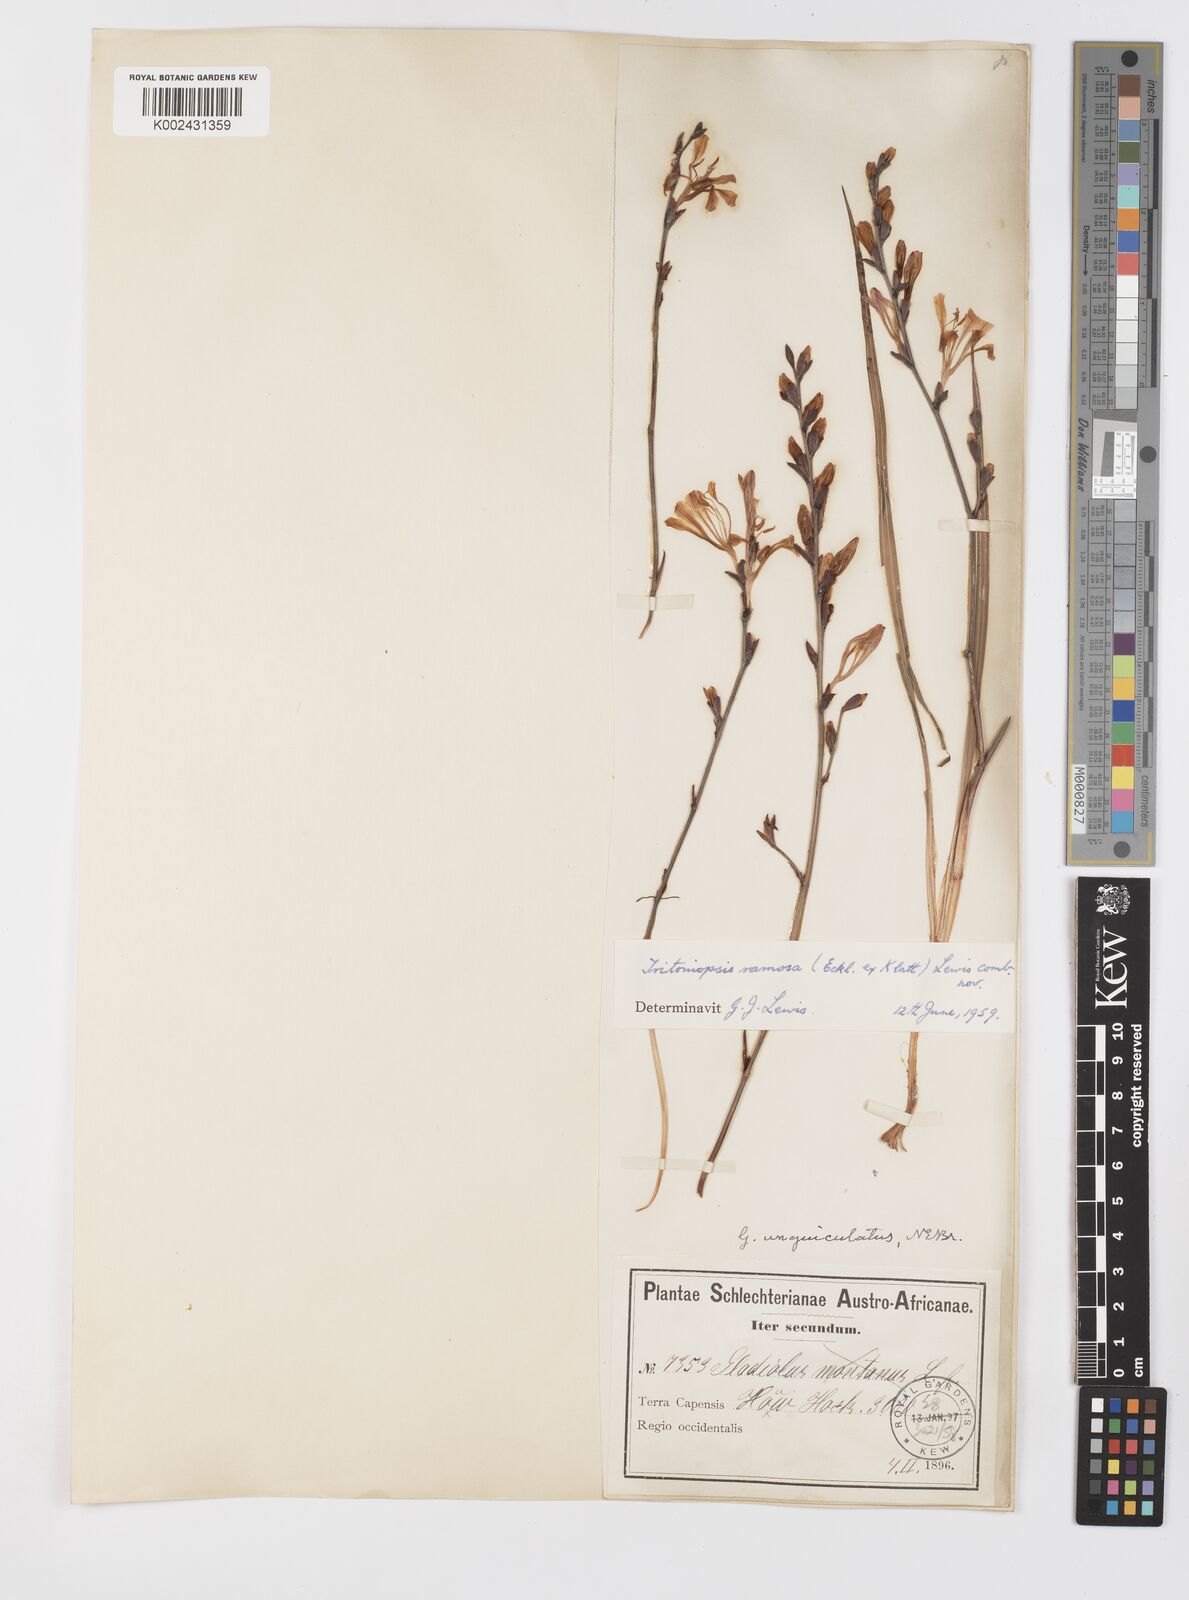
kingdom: Plantae
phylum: Tracheophyta
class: Liliopsida
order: Asparagales
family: Iridaceae
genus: Tritoniopsis
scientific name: Tritoniopsis ramosa
